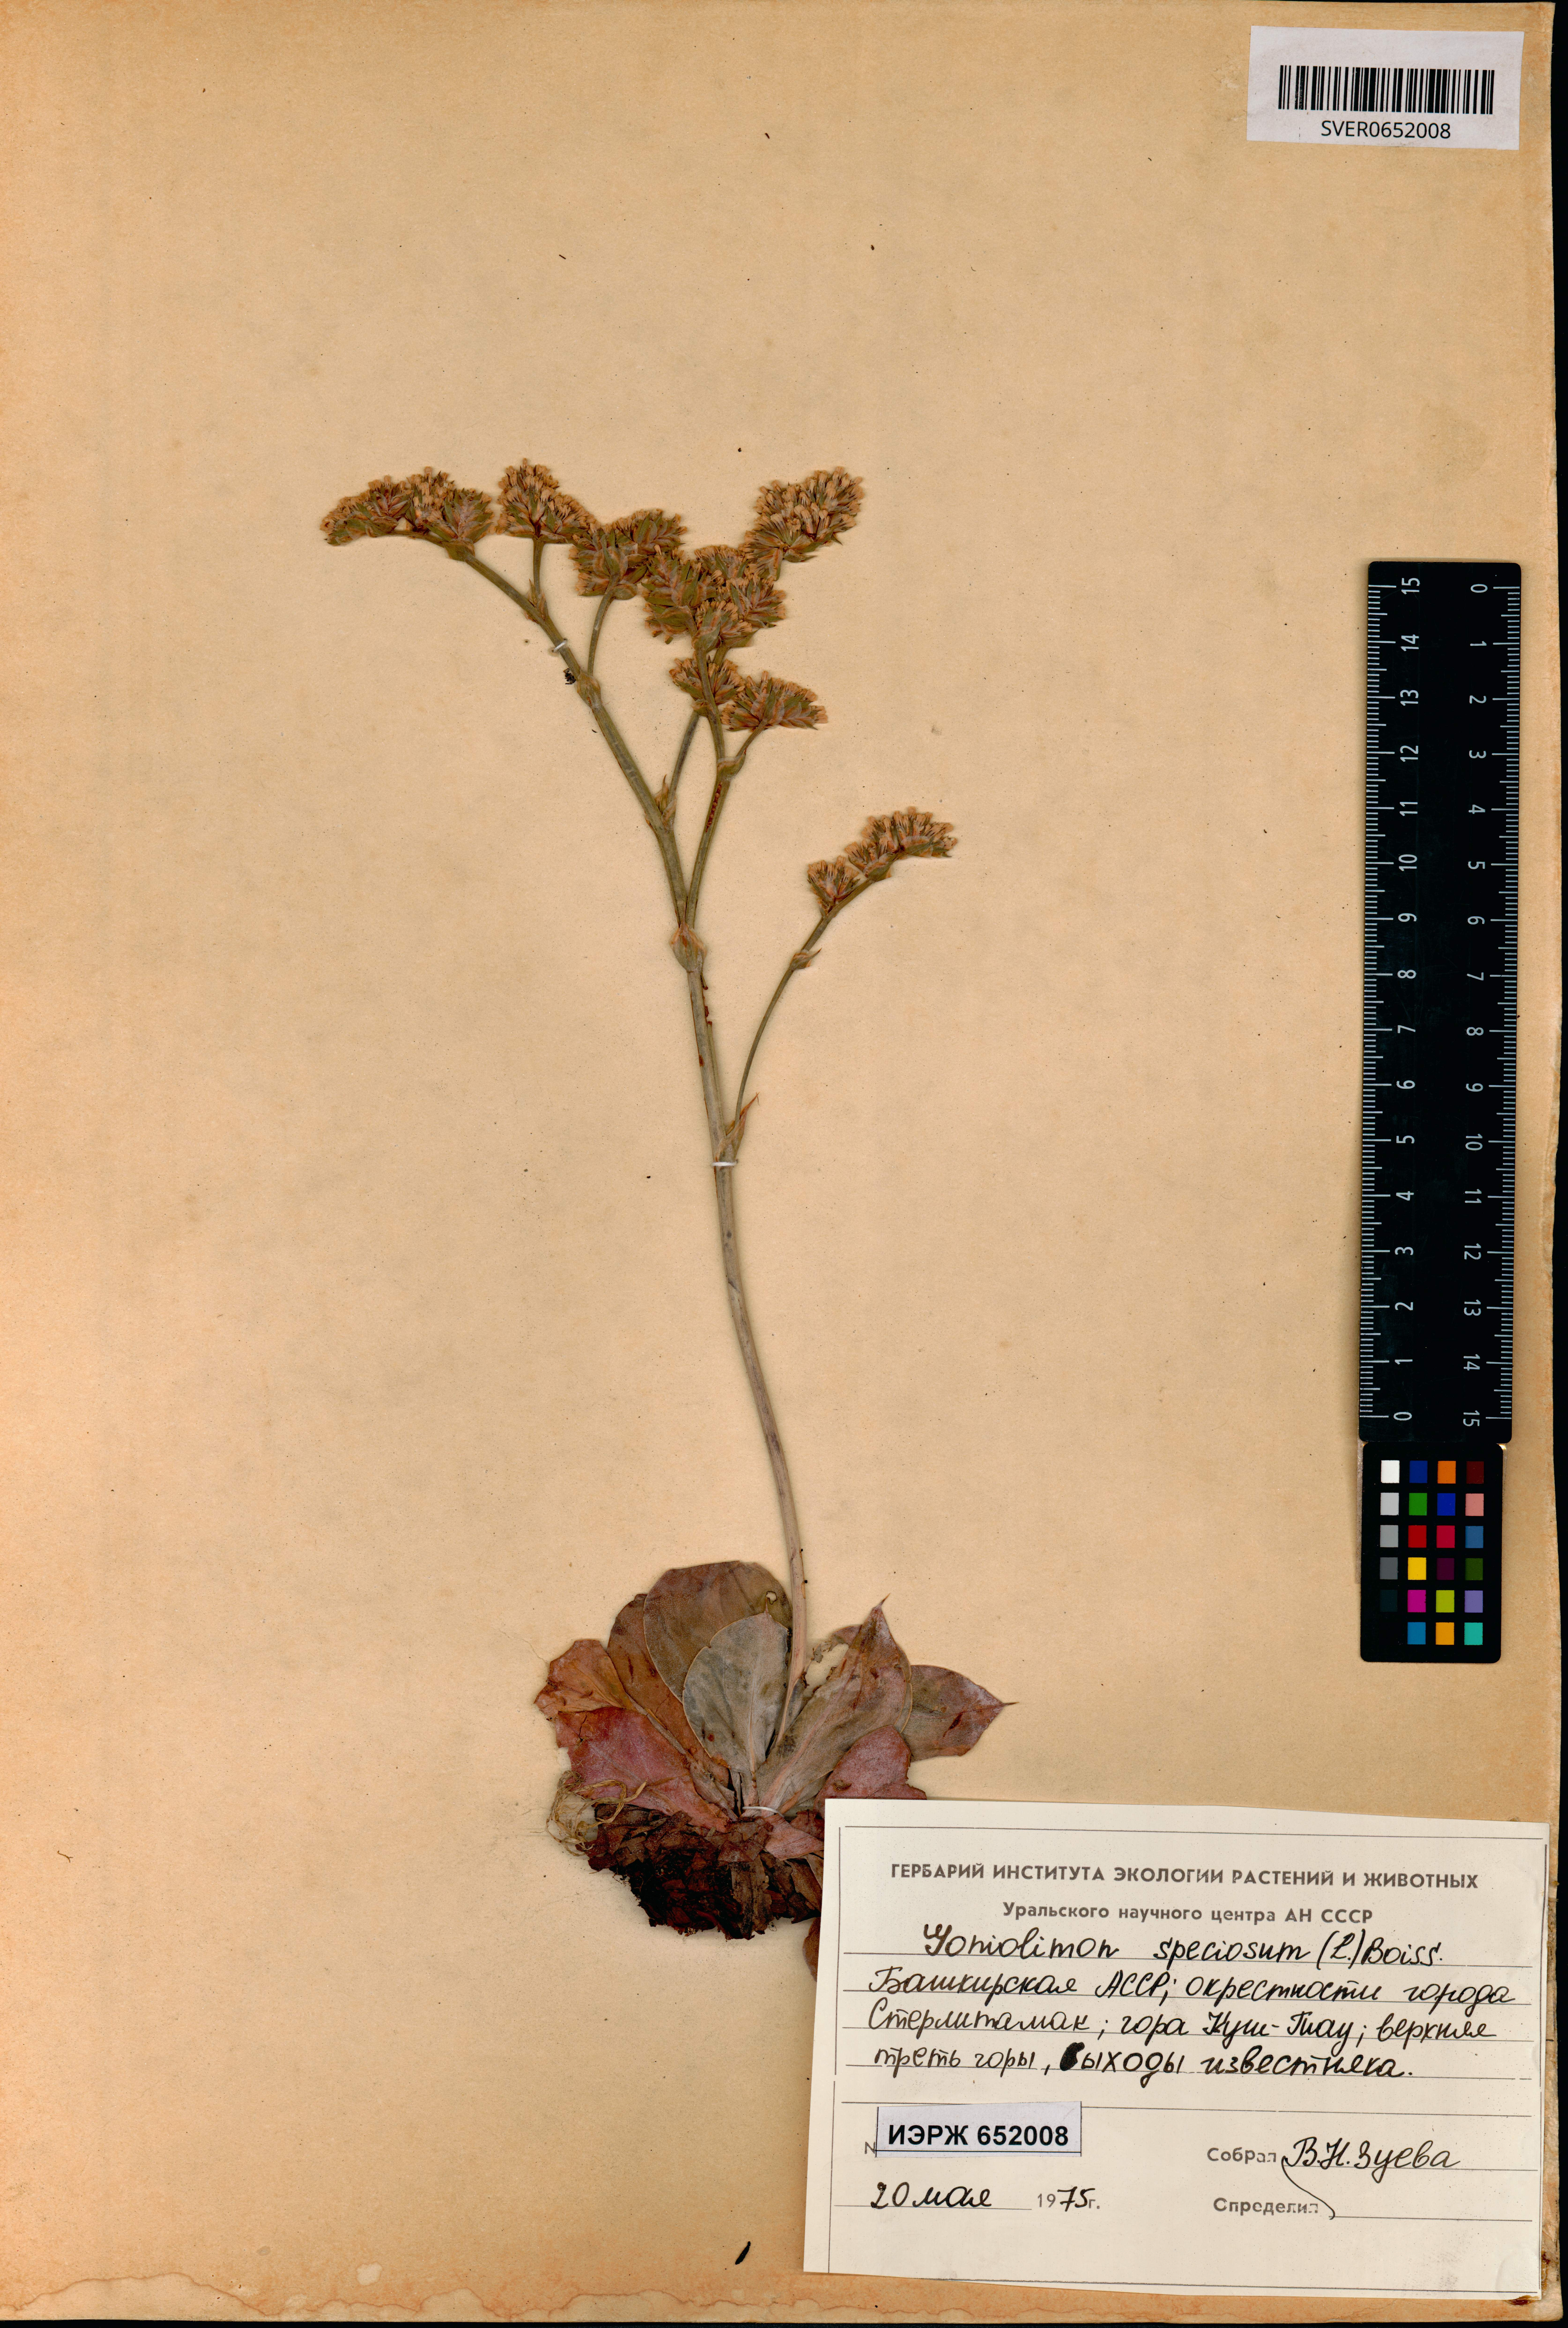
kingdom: Plantae
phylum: Tracheophyta
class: Magnoliopsida
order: Caryophyllales
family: Plumbaginaceae
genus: Goniolimon
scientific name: Goniolimon speciosum
